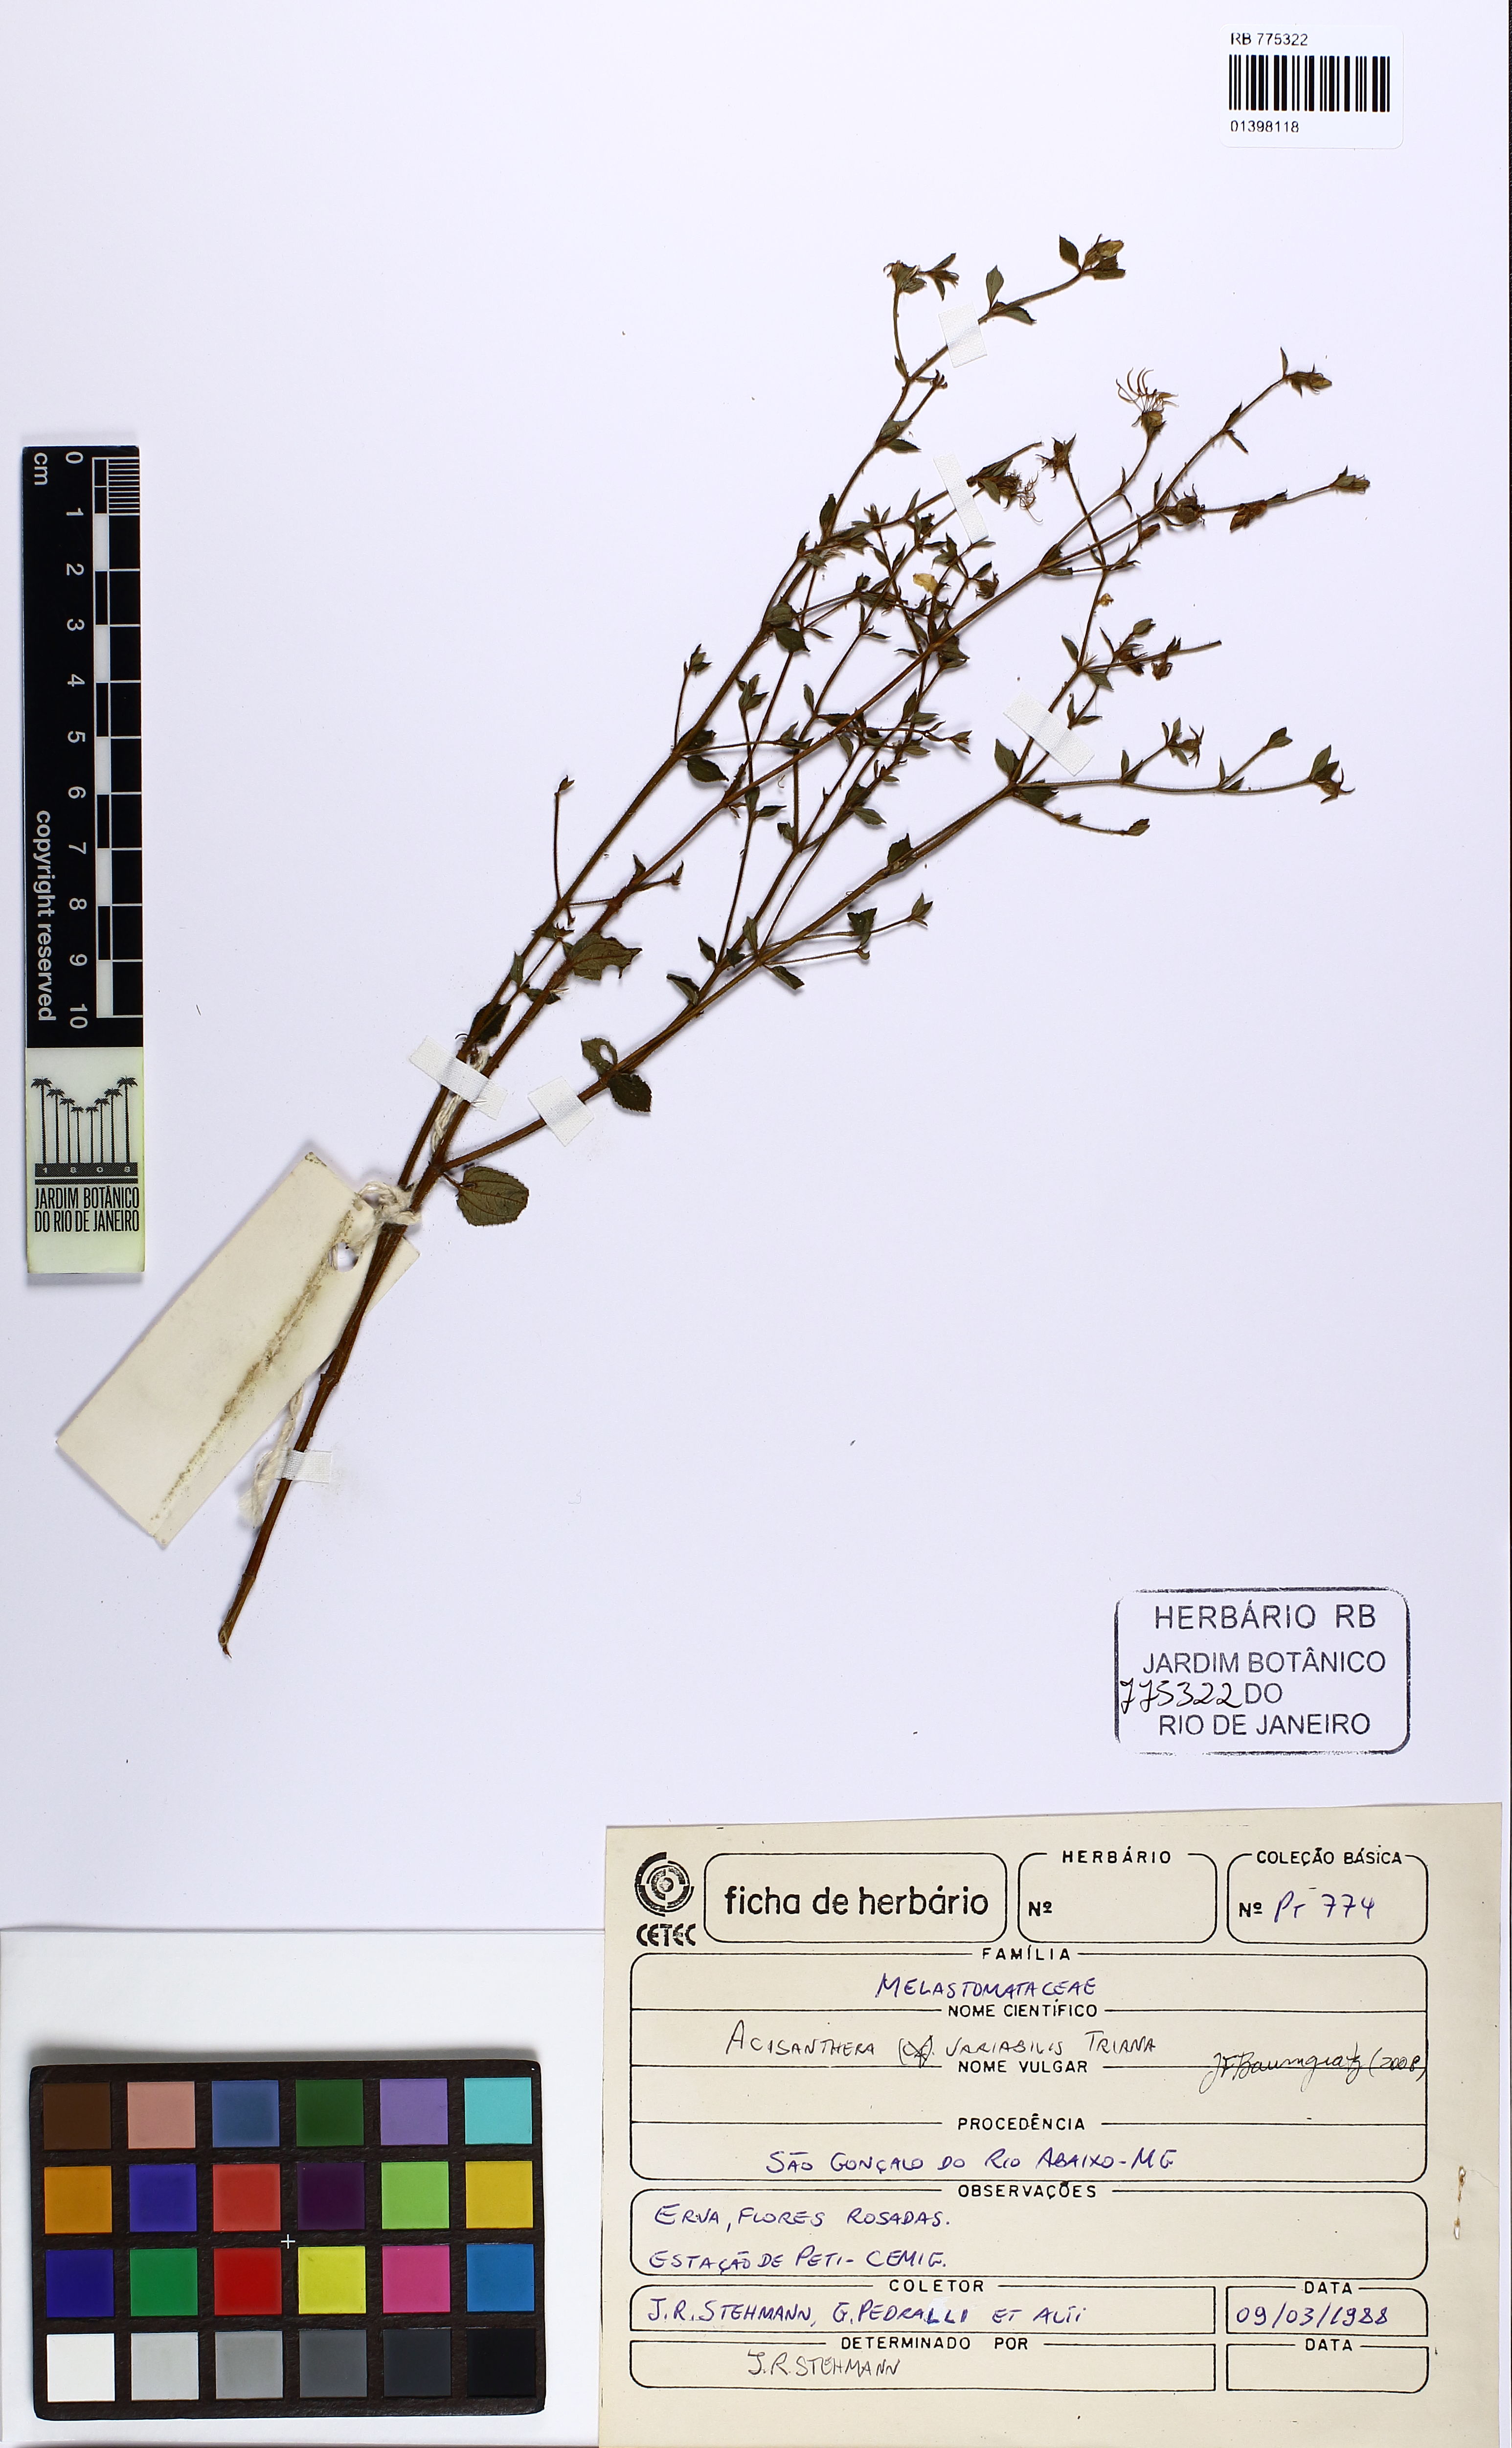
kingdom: Plantae
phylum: Tracheophyta
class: Magnoliopsida
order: Myrtales
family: Melastomataceae
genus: Acisanthera
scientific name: Acisanthera variabilis
